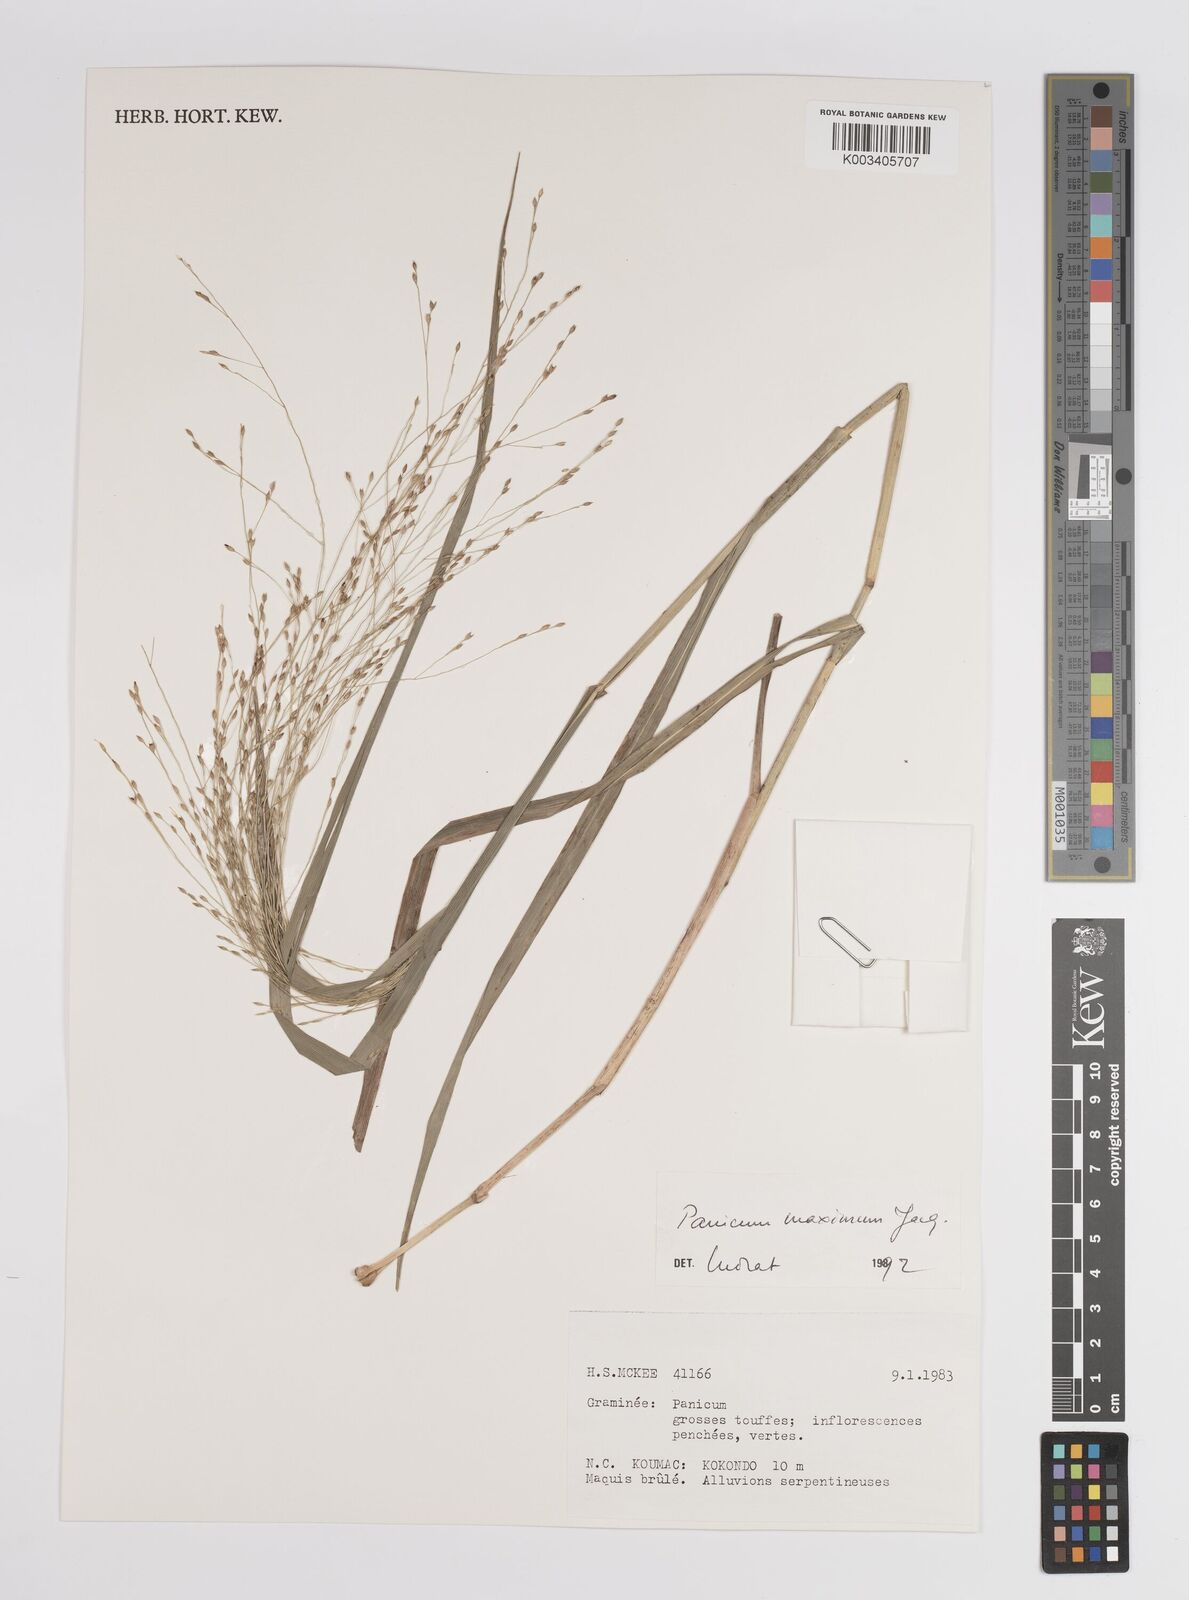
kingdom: Plantae
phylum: Tracheophyta
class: Liliopsida
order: Poales
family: Poaceae
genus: Megathyrsus
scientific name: Megathyrsus maximus
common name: Guineagrass
